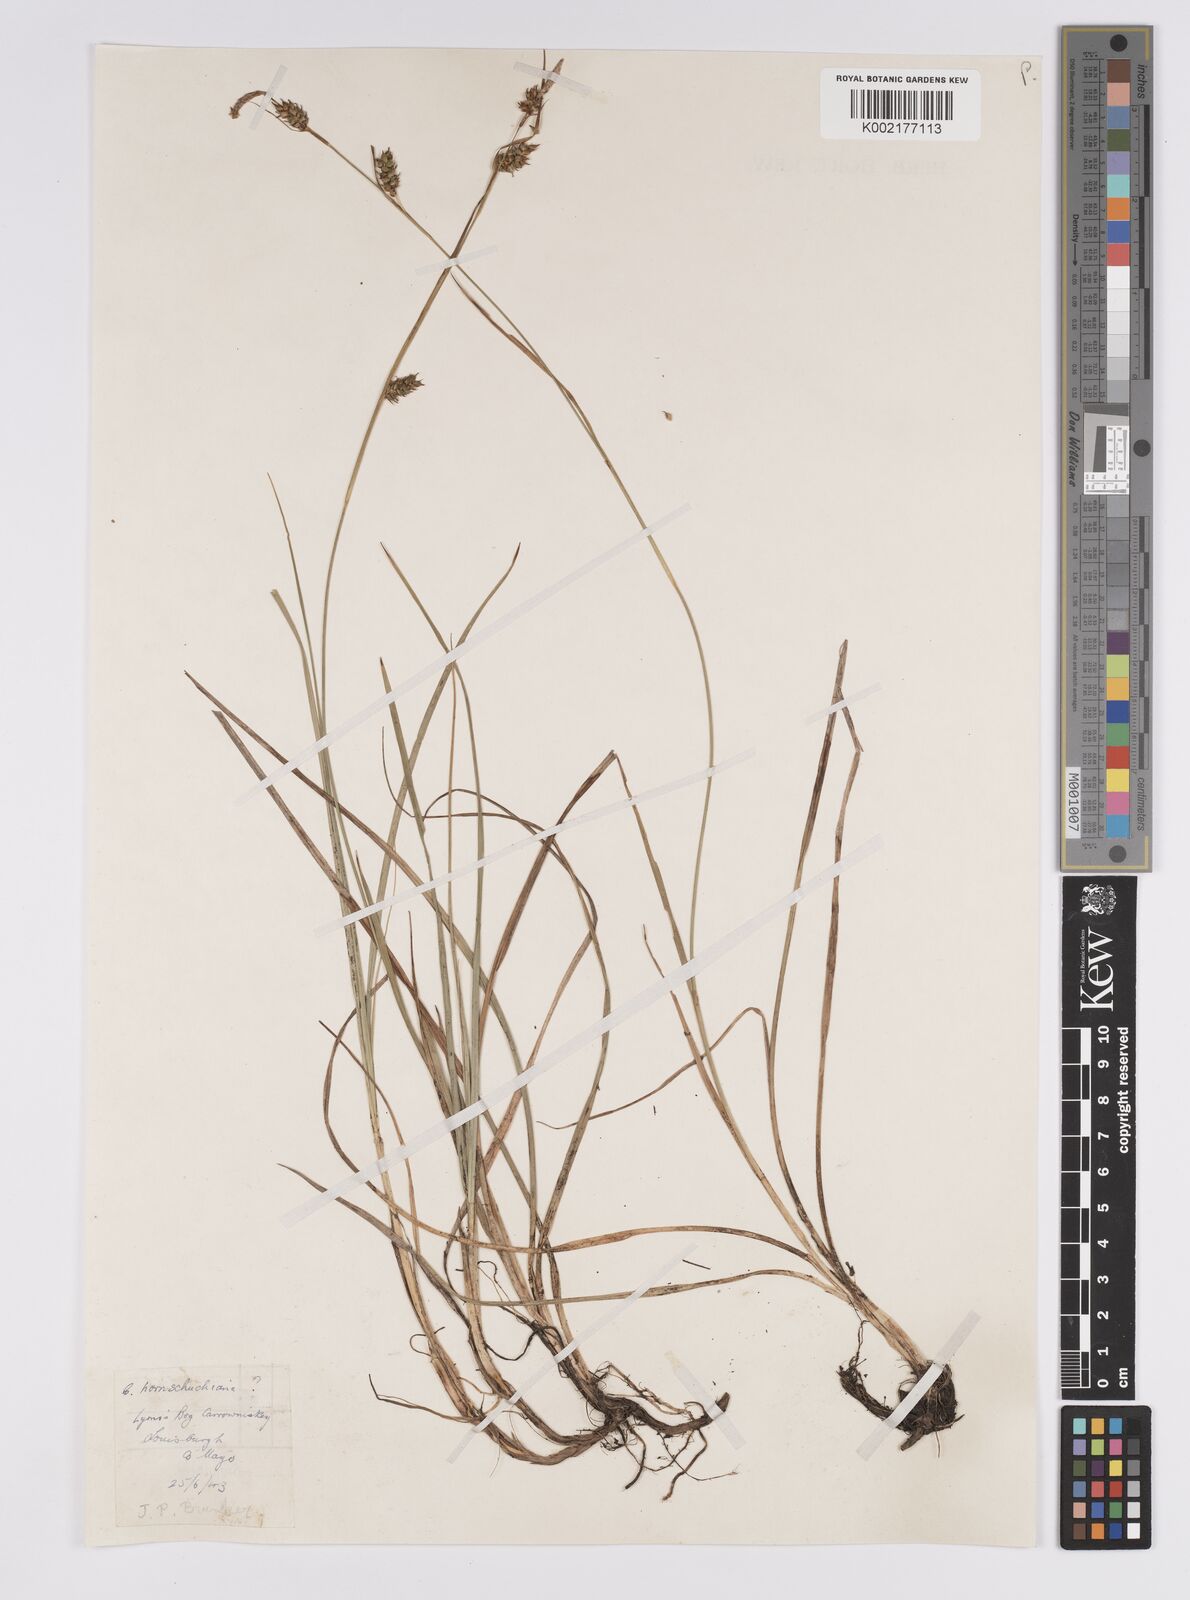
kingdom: Plantae
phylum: Tracheophyta
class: Liliopsida
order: Poales
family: Cyperaceae
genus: Carex
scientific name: Carex hostiana
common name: Tawny sedge
